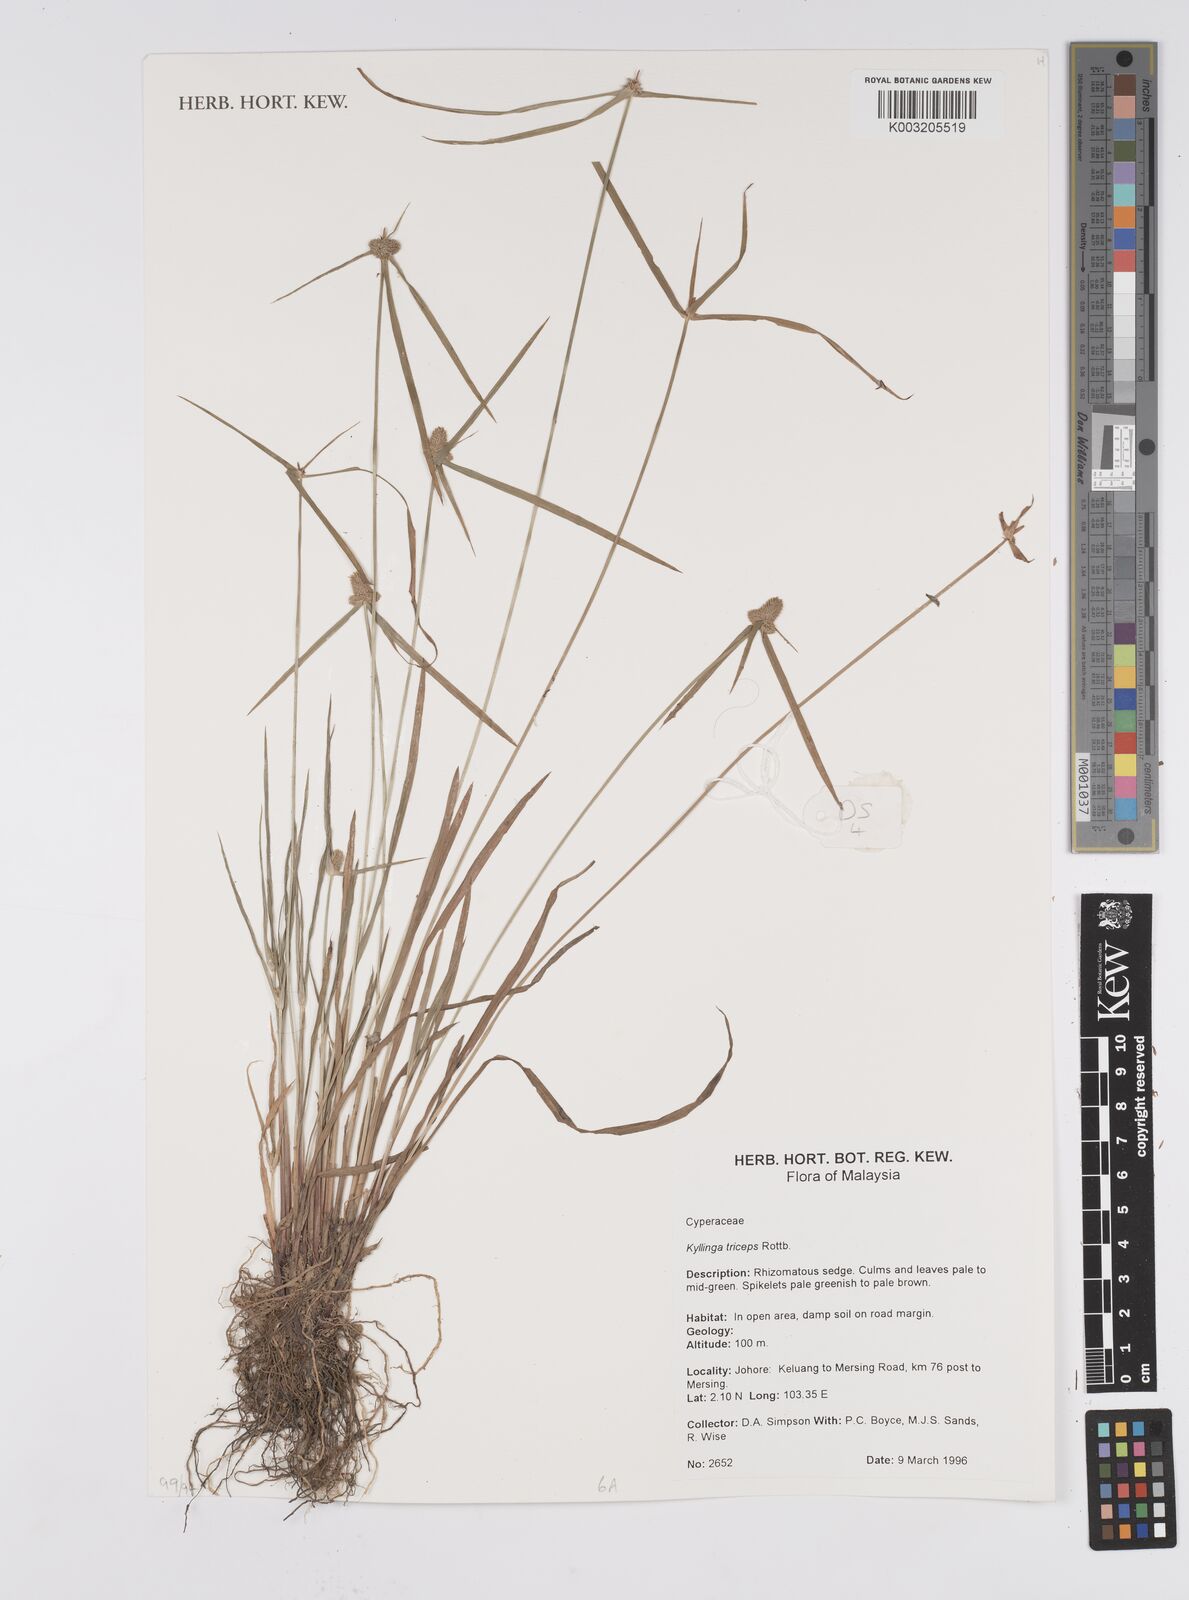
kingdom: Plantae
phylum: Tracheophyta
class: Liliopsida
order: Poales
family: Cyperaceae
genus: Cyperus
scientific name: Cyperus
